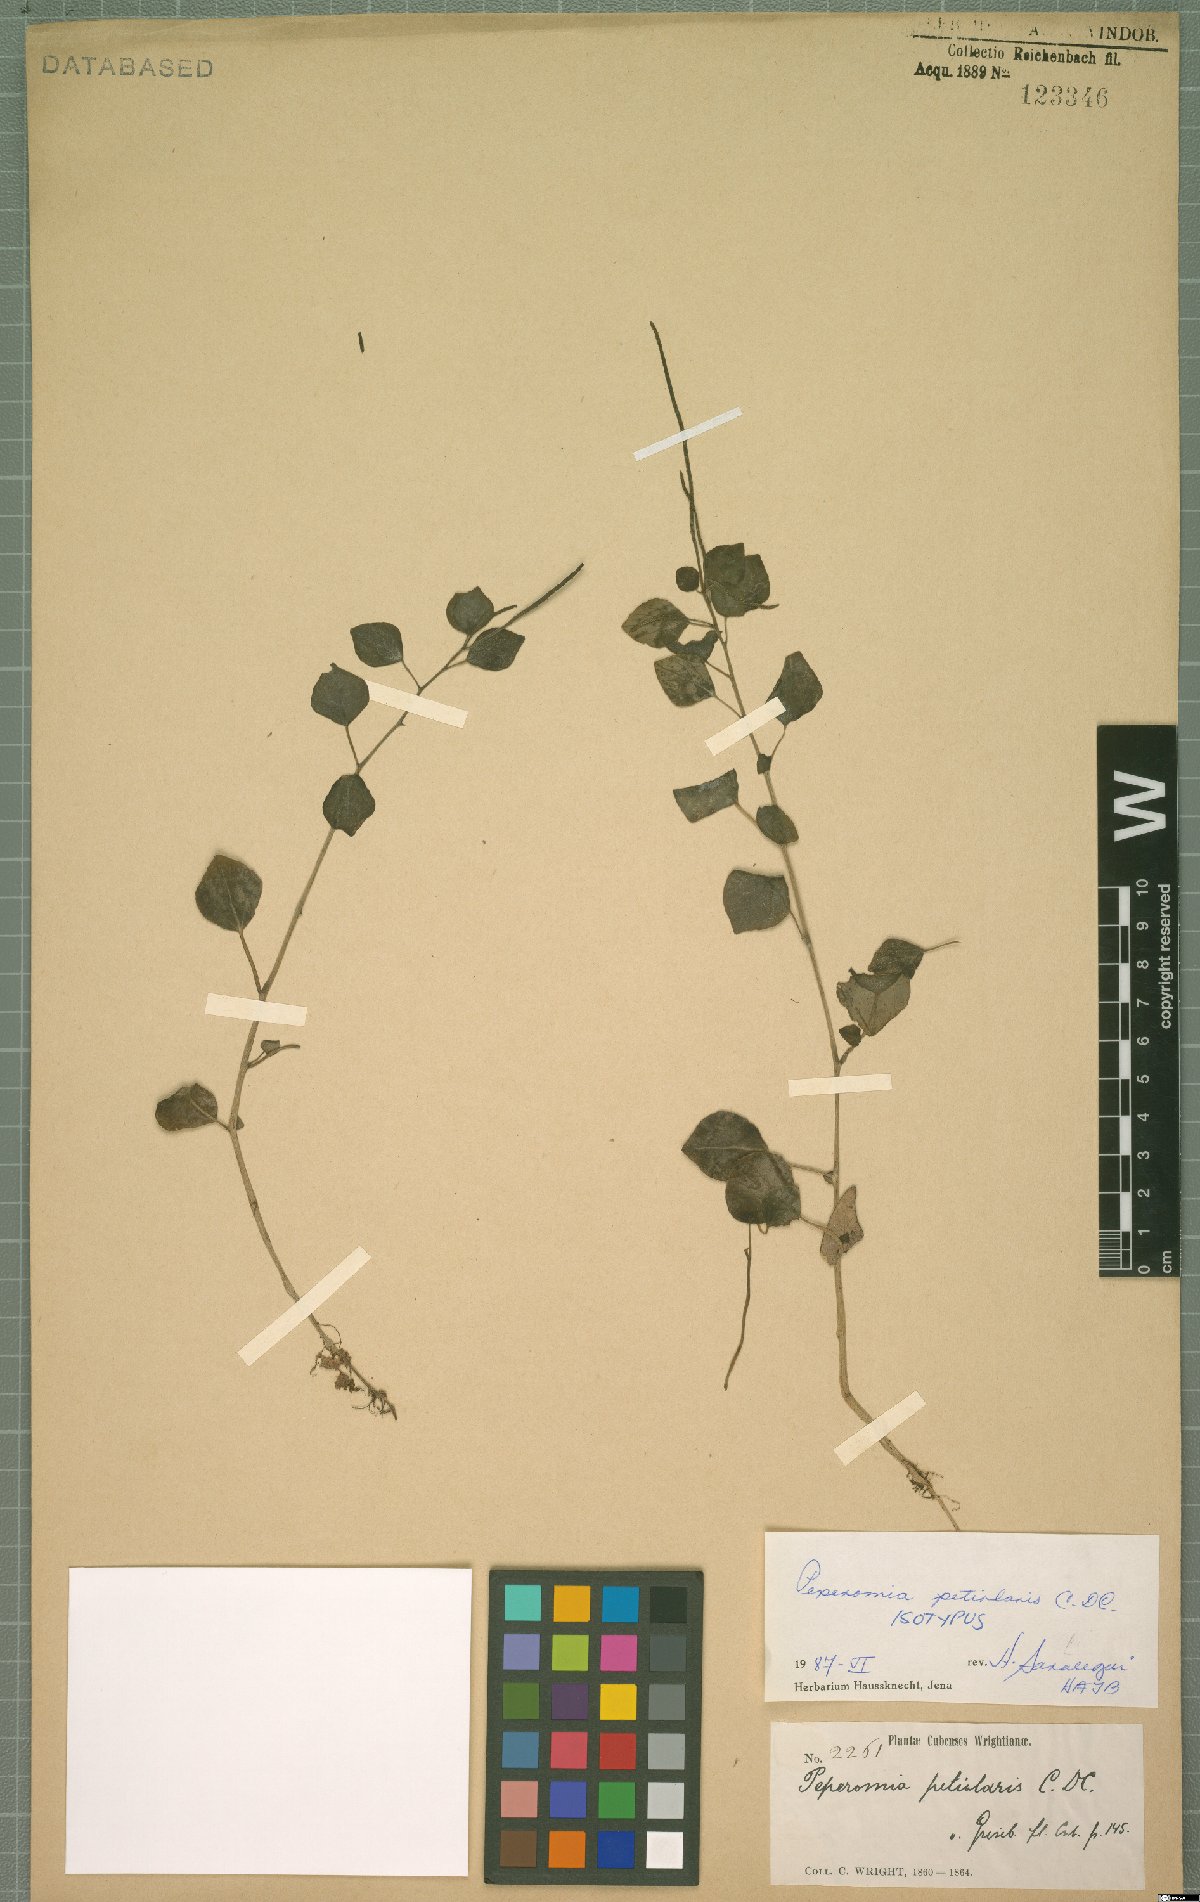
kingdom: Plantae
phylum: Tracheophyta
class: Magnoliopsida
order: Piperales
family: Piperaceae
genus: Peperomia
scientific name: Peperomia petiolaris
